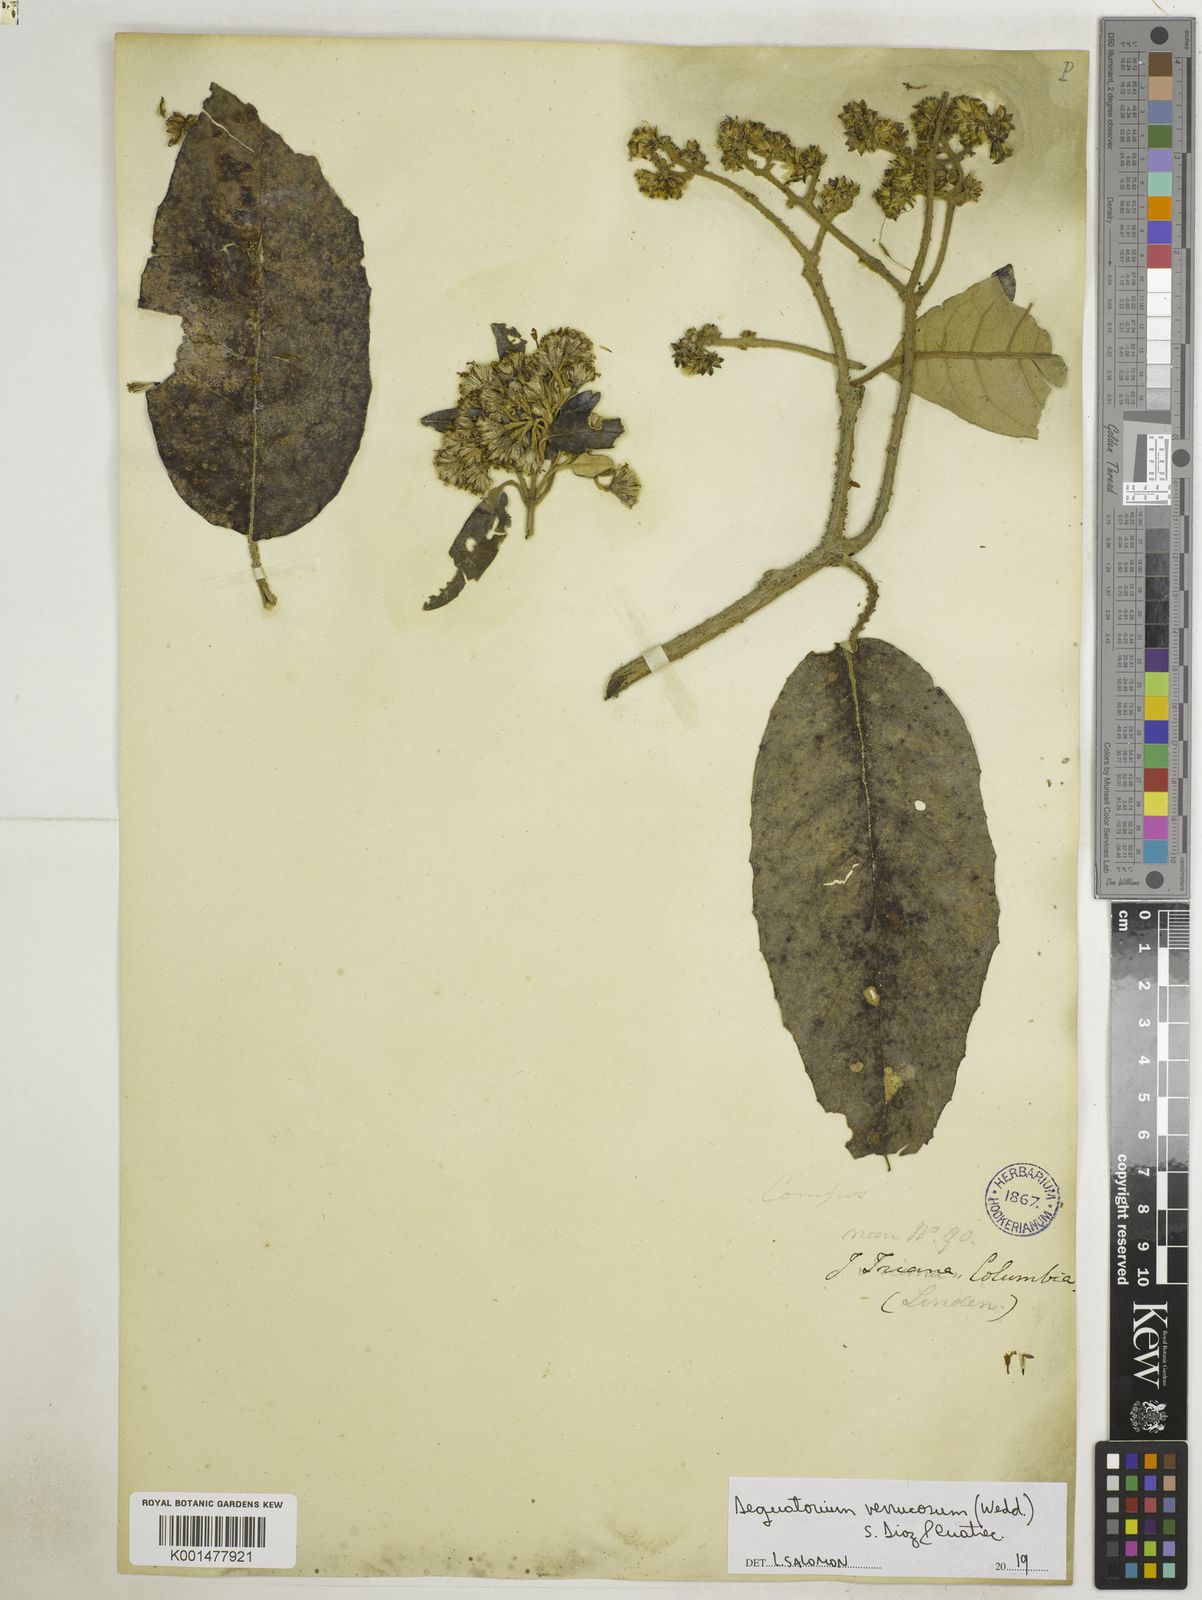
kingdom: Plantae
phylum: Tracheophyta
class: Magnoliopsida
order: Asterales
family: Asteraceae
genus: Aequatorium
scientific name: Aequatorium verrucosum
